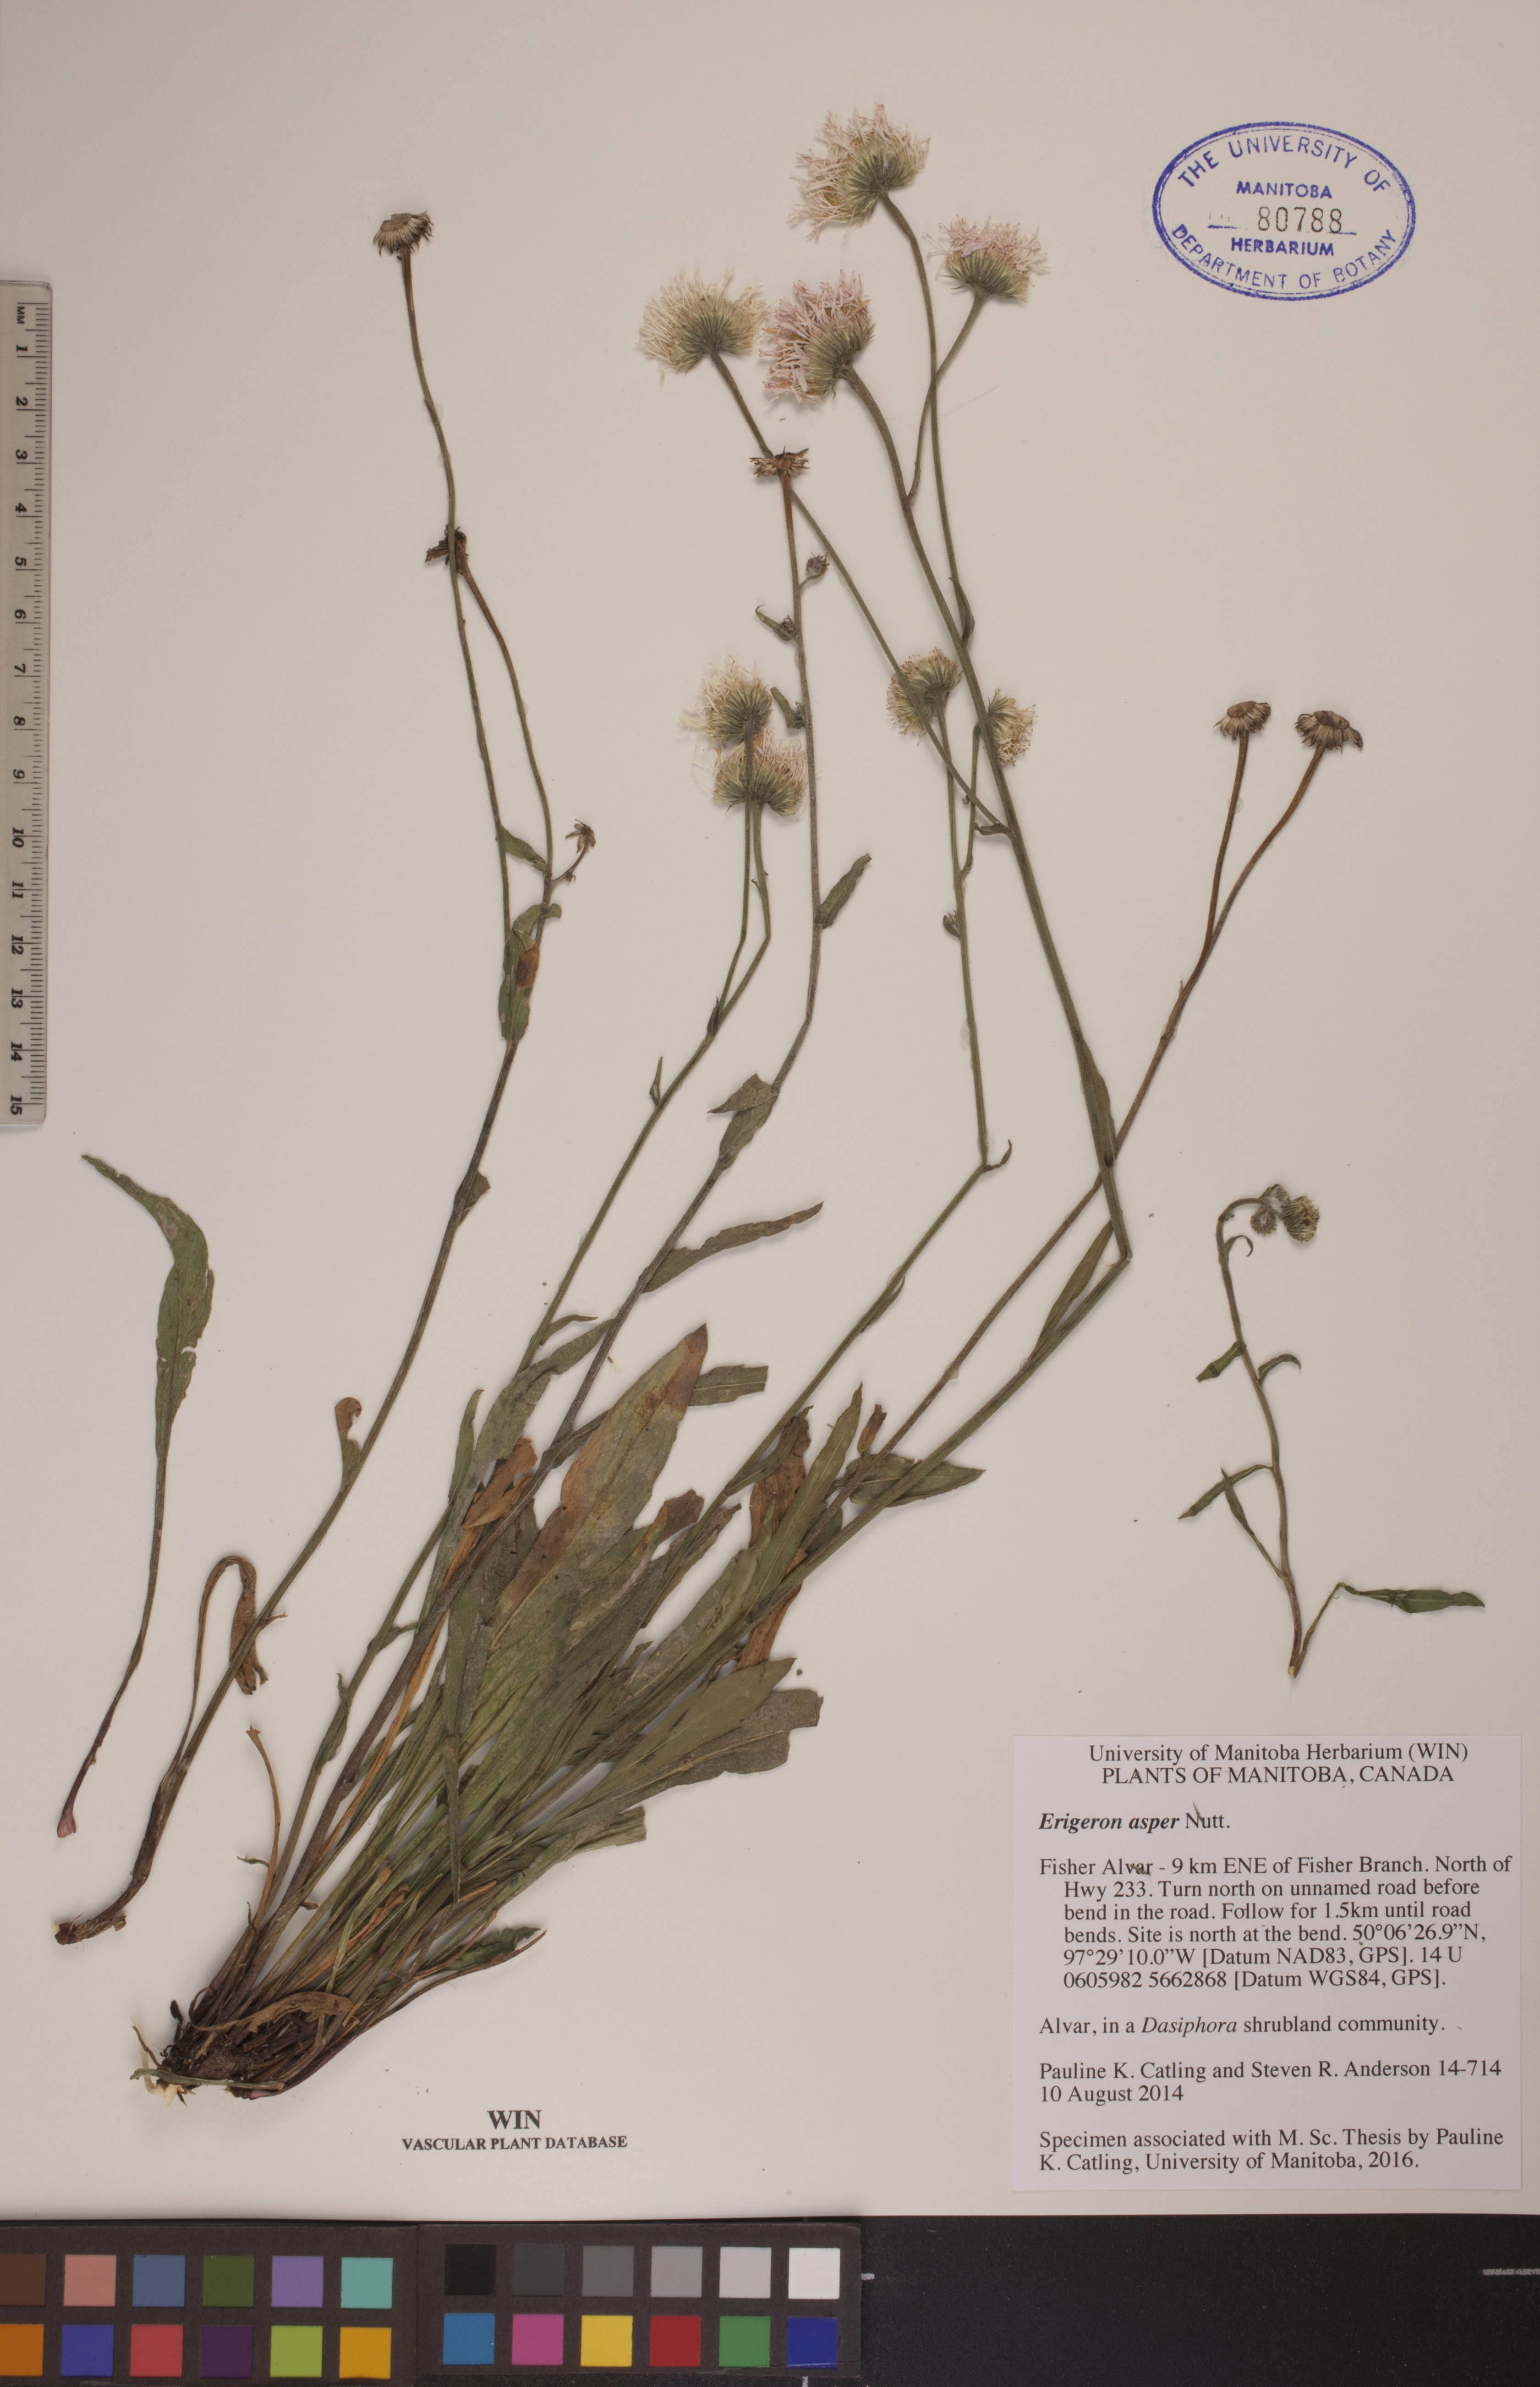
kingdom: Plantae
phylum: Tracheophyta
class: Magnoliopsida
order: Asterales
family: Asteraceae
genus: Erigeron
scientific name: Erigeron glabellus
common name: Smooth fleabane
